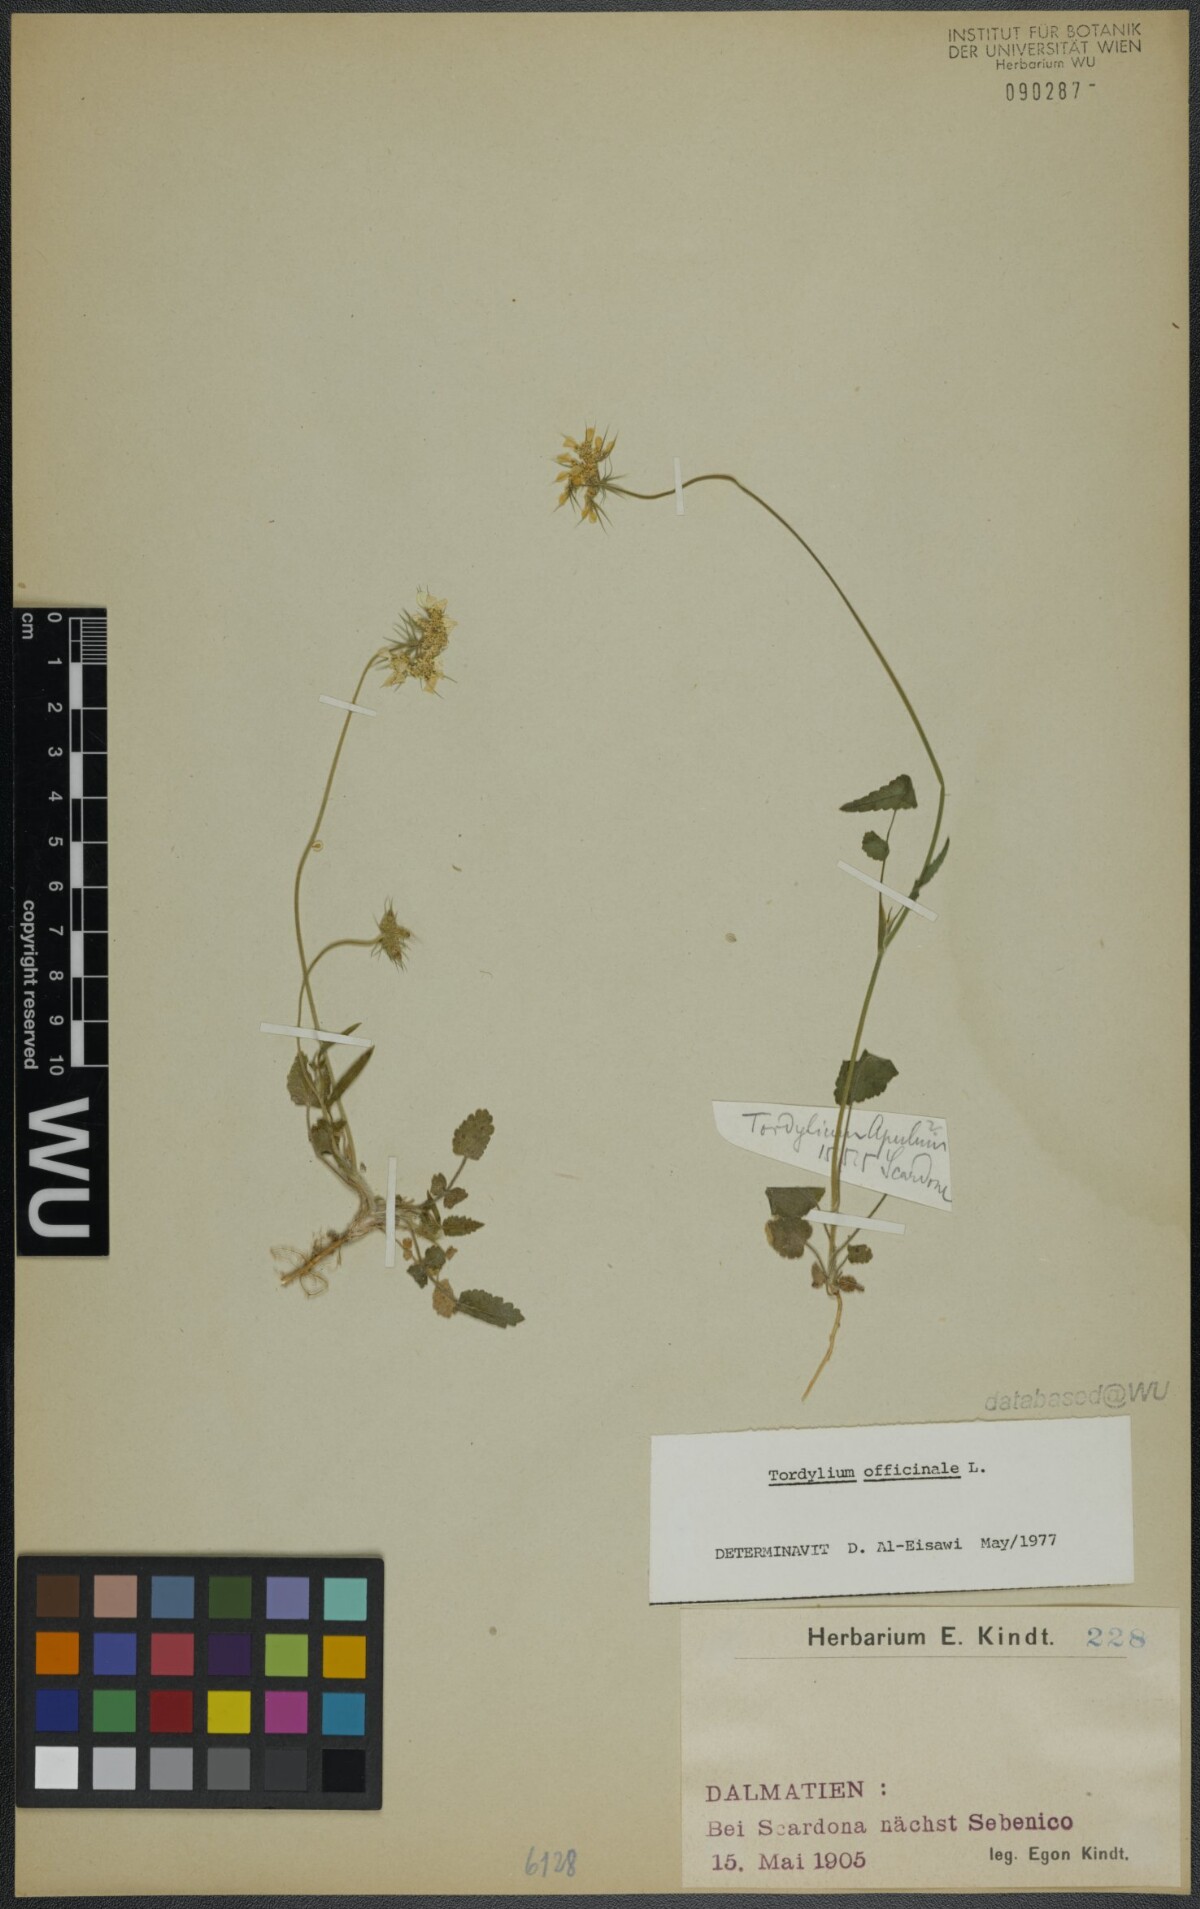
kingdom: Plantae
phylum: Tracheophyta
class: Magnoliopsida
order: Apiales
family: Apiaceae
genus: Tordylium
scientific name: Tordylium officinale
